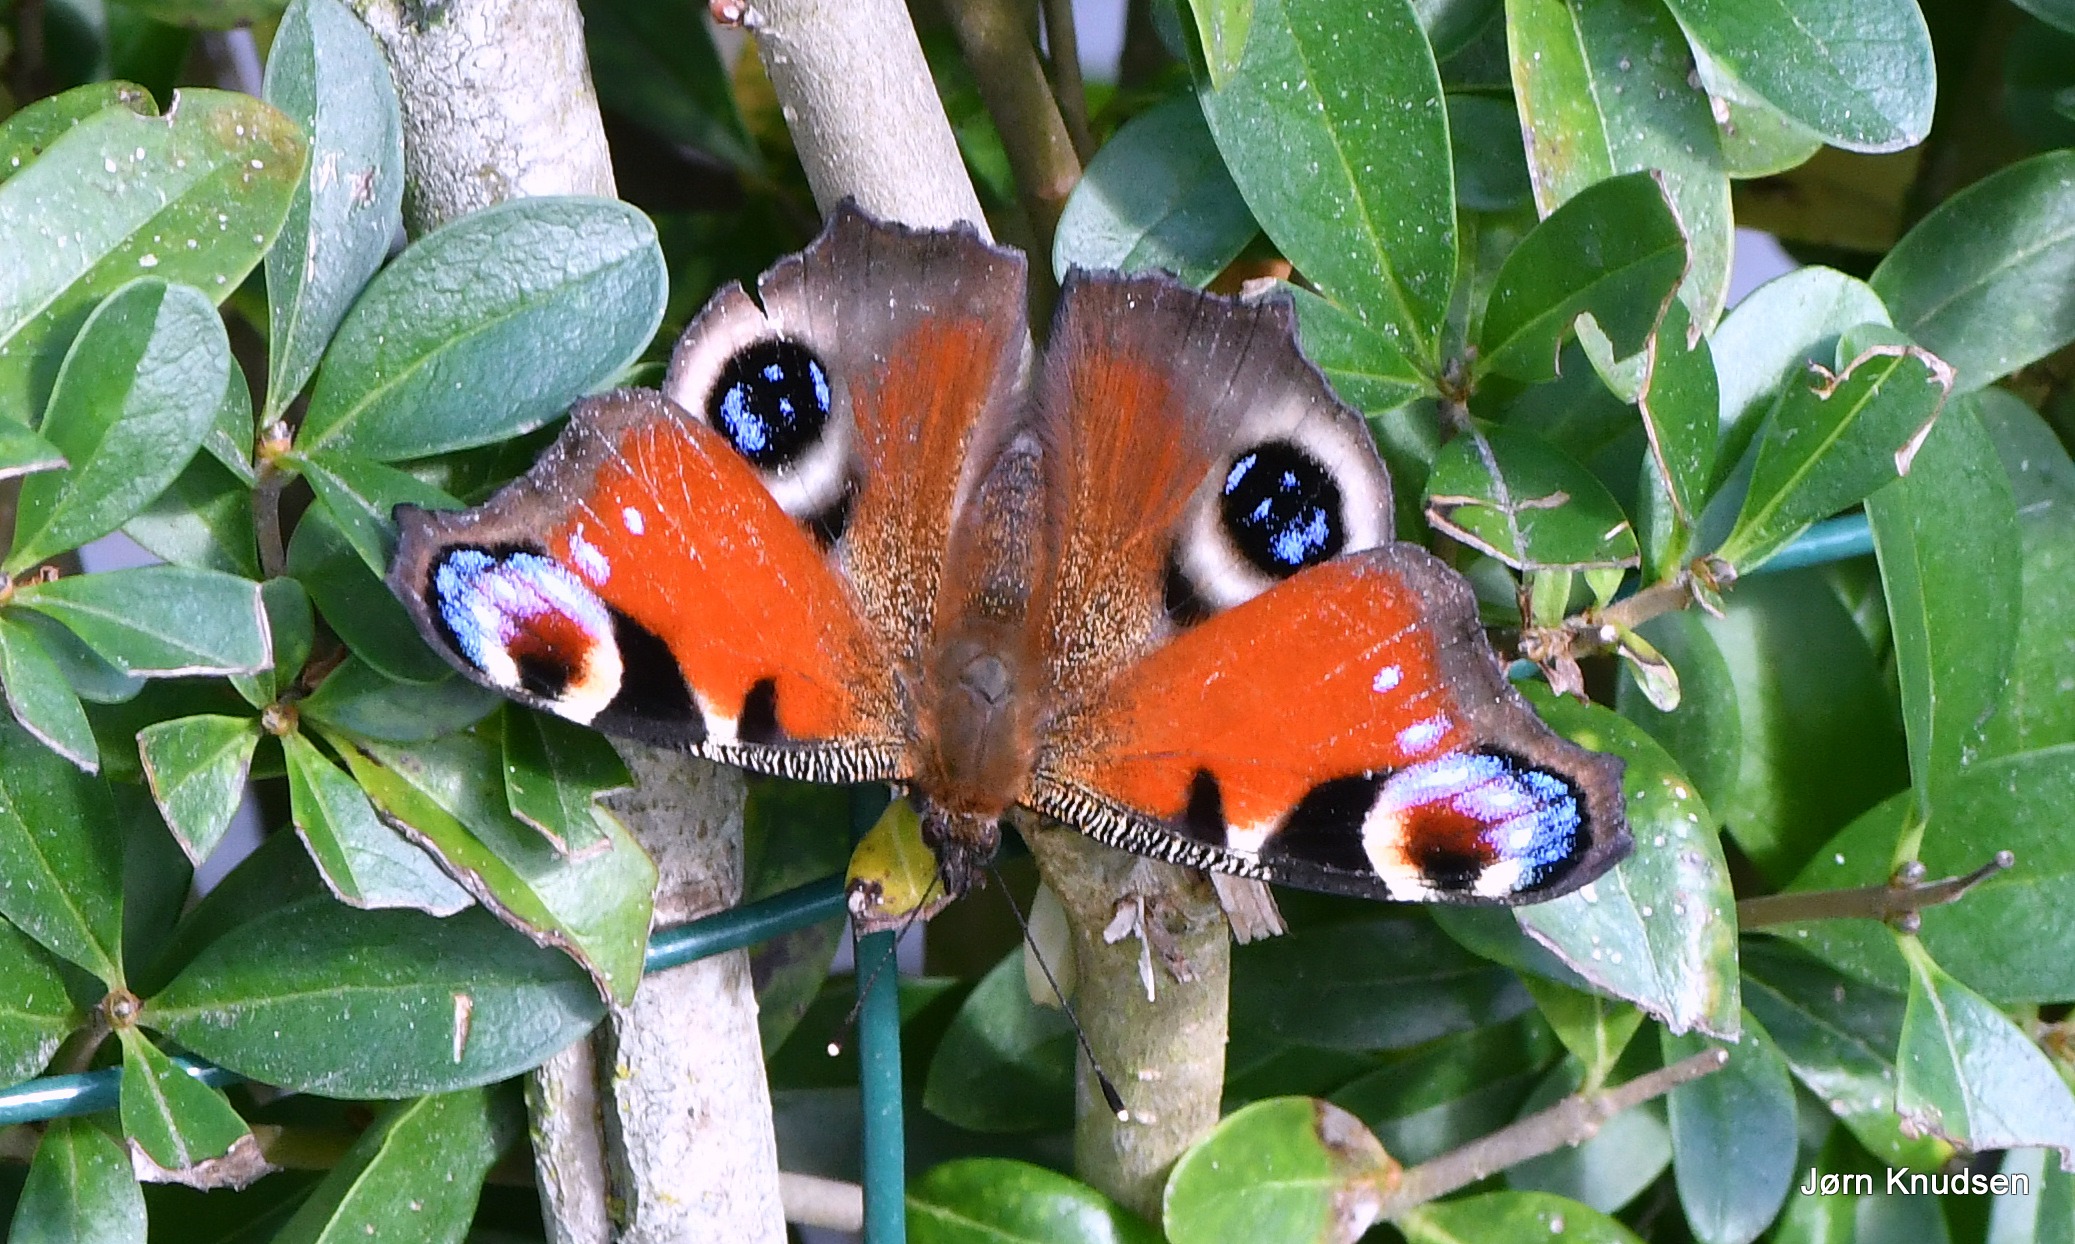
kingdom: Animalia
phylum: Arthropoda
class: Insecta
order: Lepidoptera
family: Nymphalidae
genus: Aglais
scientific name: Aglais io
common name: Dagpåfugleøje
